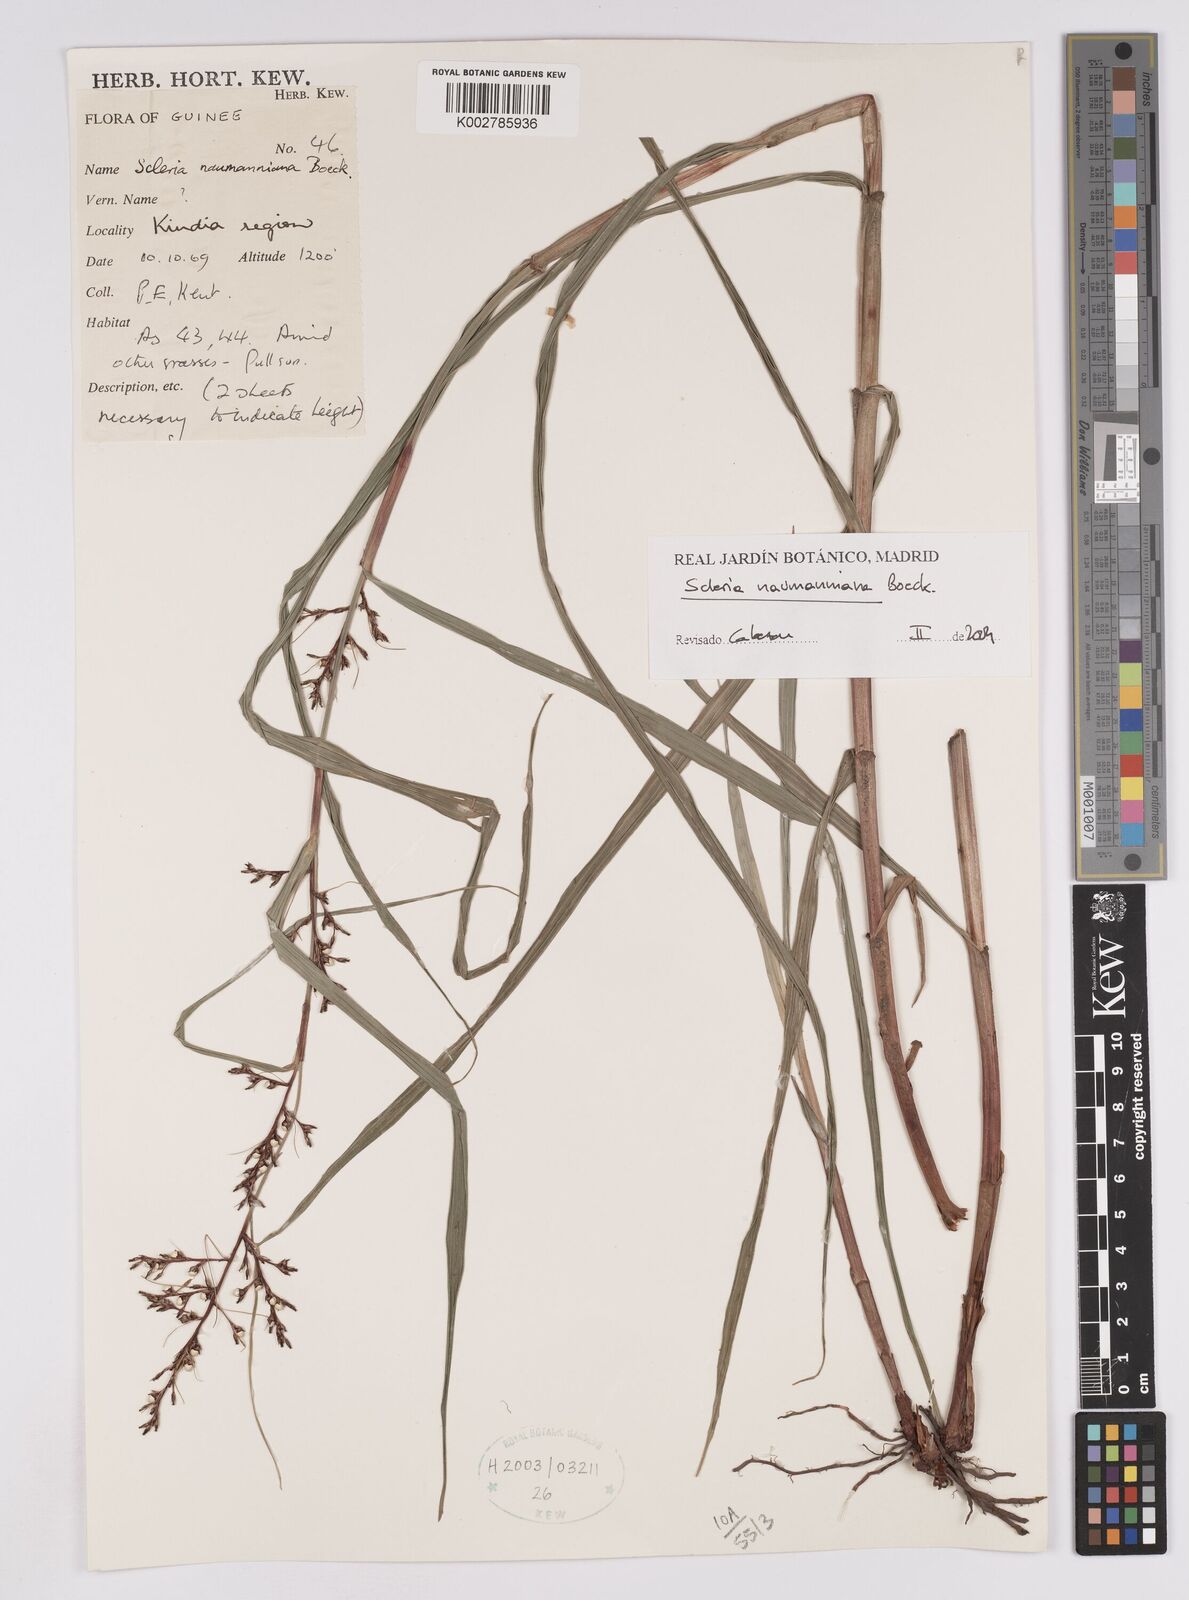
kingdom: Plantae
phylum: Tracheophyta
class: Liliopsida
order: Poales
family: Cyperaceae
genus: Scleria
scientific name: Scleria naumanniana
